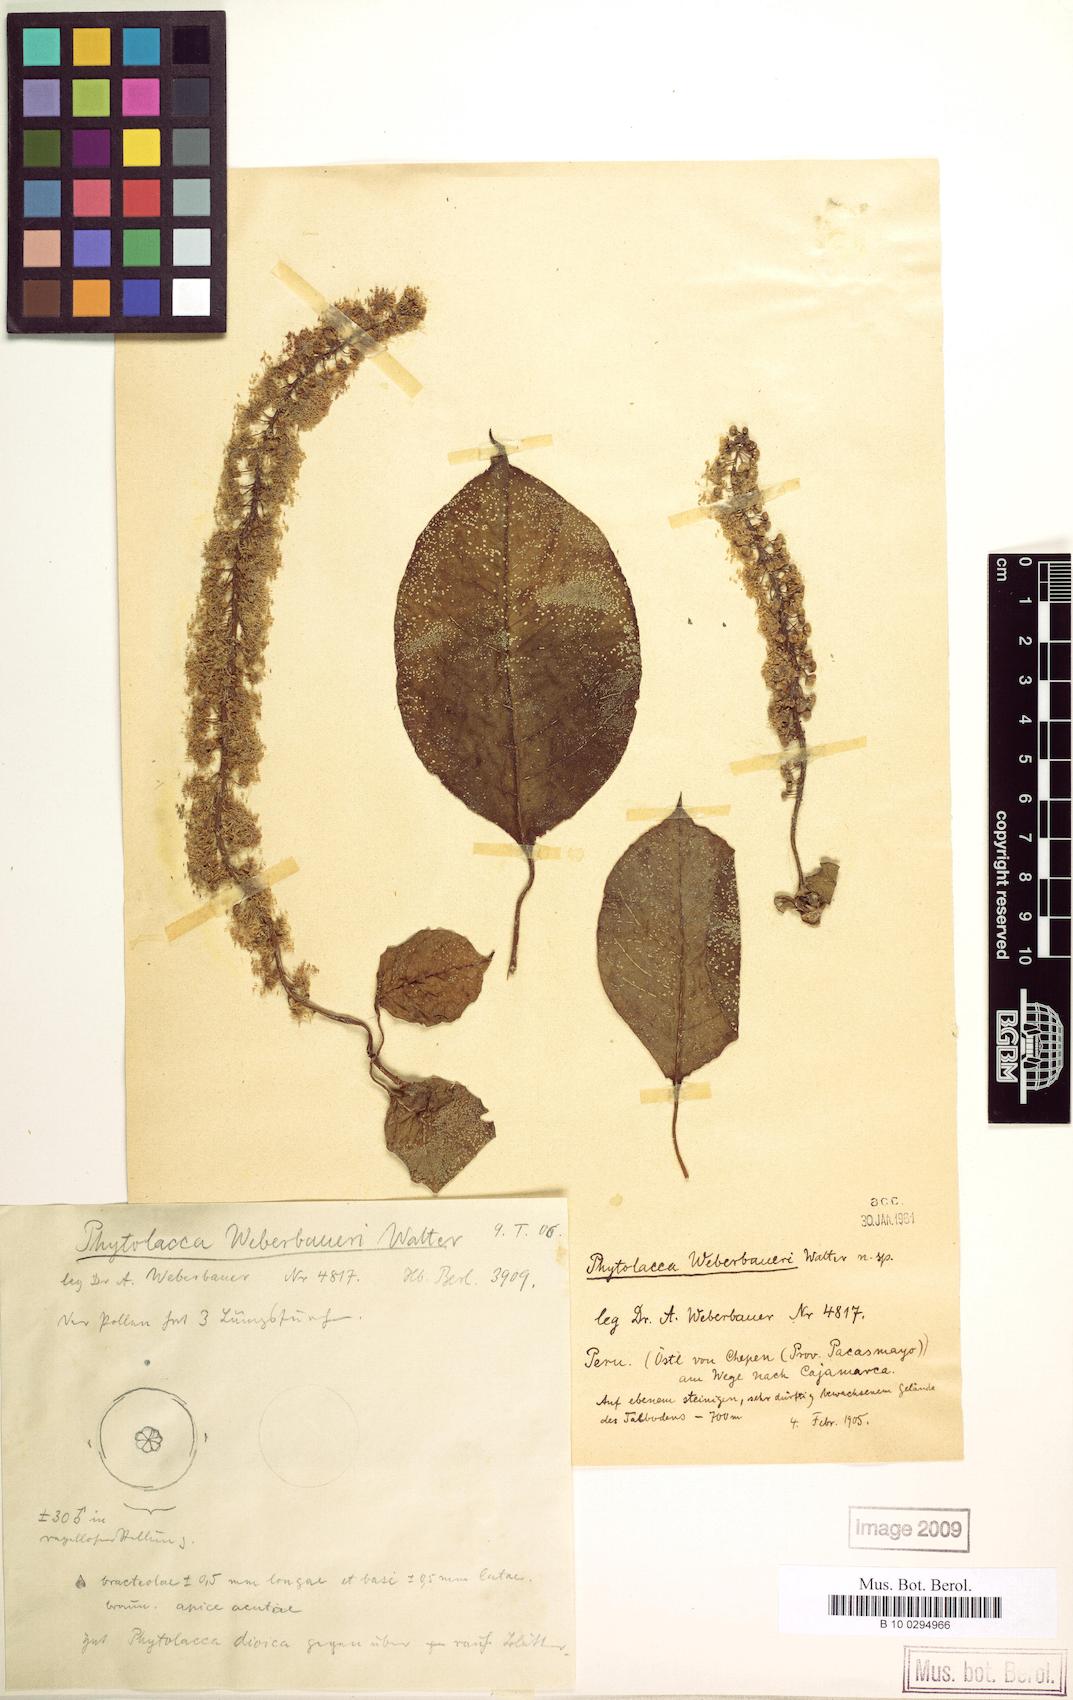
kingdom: Plantae
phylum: Tracheophyta
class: Magnoliopsida
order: Caryophyllales
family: Phytolaccaceae
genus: Phytolacca
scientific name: Phytolacca dioica
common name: Pokeweed
